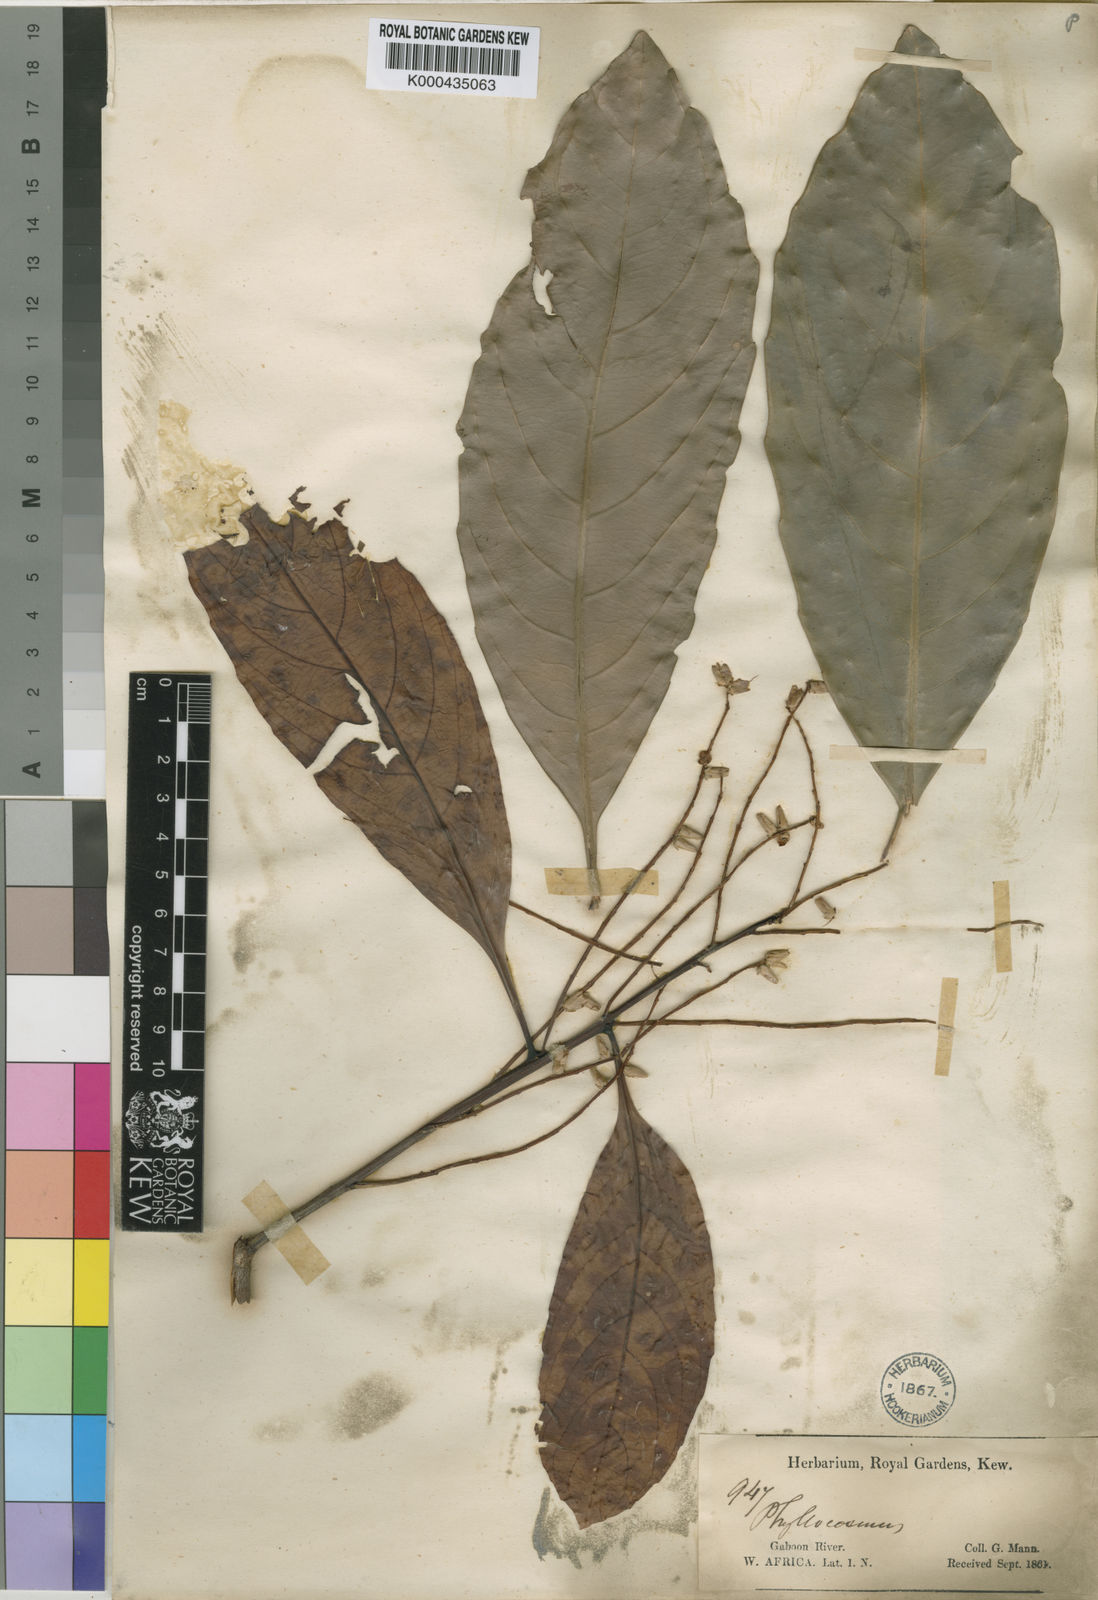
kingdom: Plantae
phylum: Tracheophyta
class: Magnoliopsida
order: Malpighiales
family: Ixonanthaceae
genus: Phyllocosmus
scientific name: Phyllocosmus sessiliflorus
